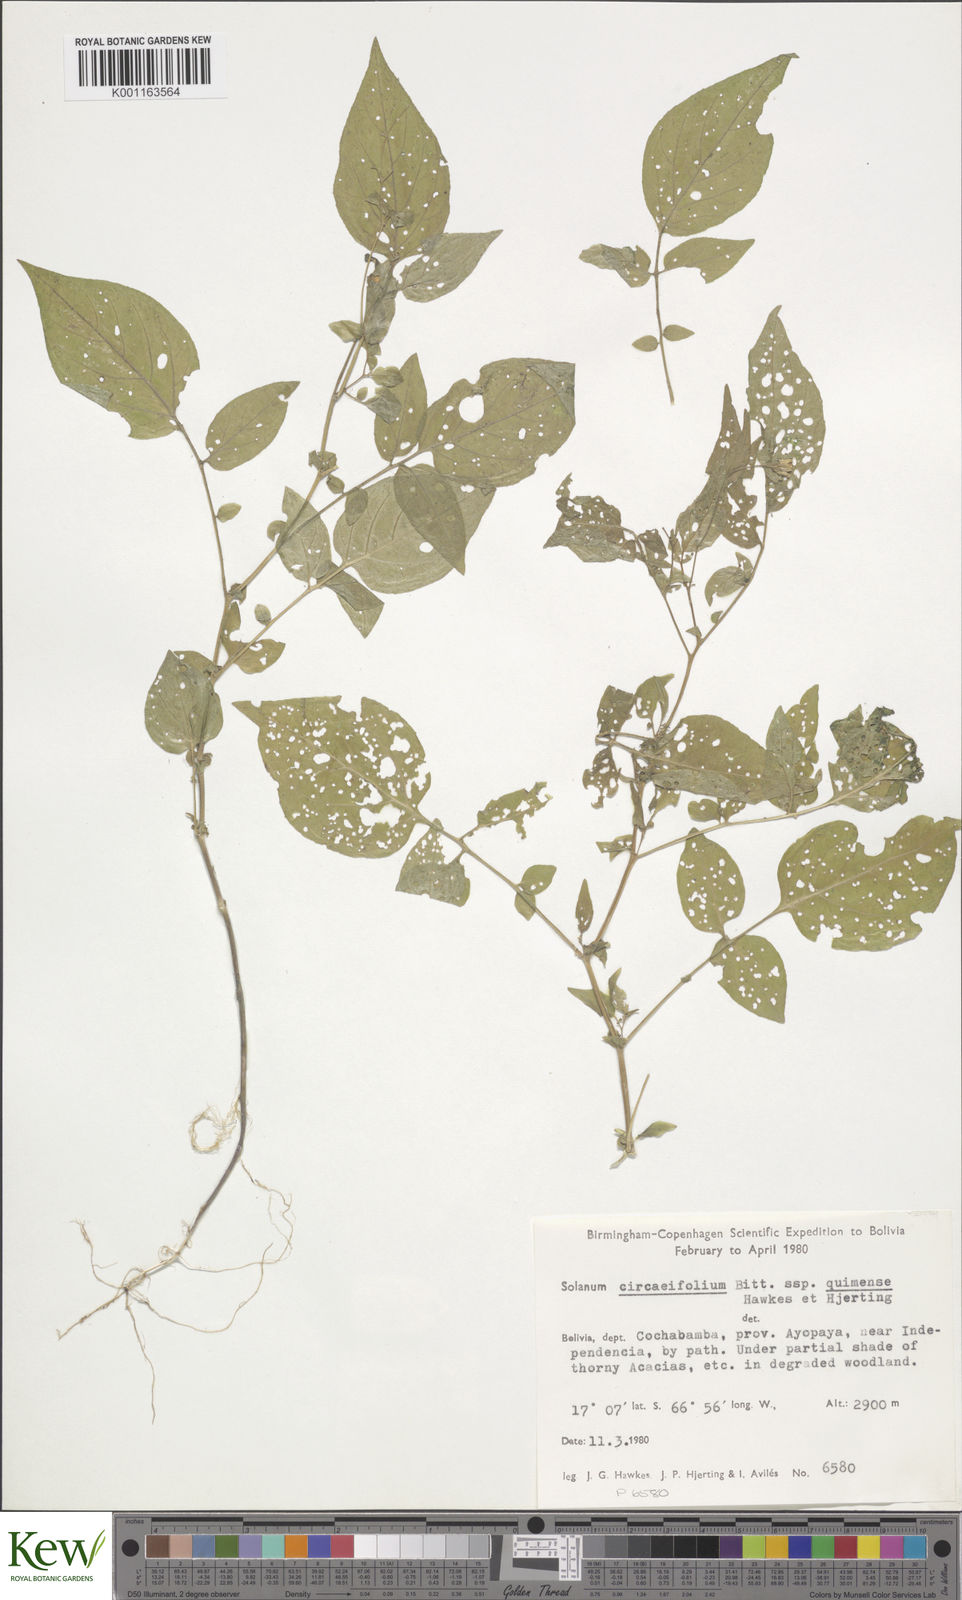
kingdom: Plantae
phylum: Tracheophyta
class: Magnoliopsida
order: Solanales
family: Solanaceae
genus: Solanum
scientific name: Solanum stipuloideum
